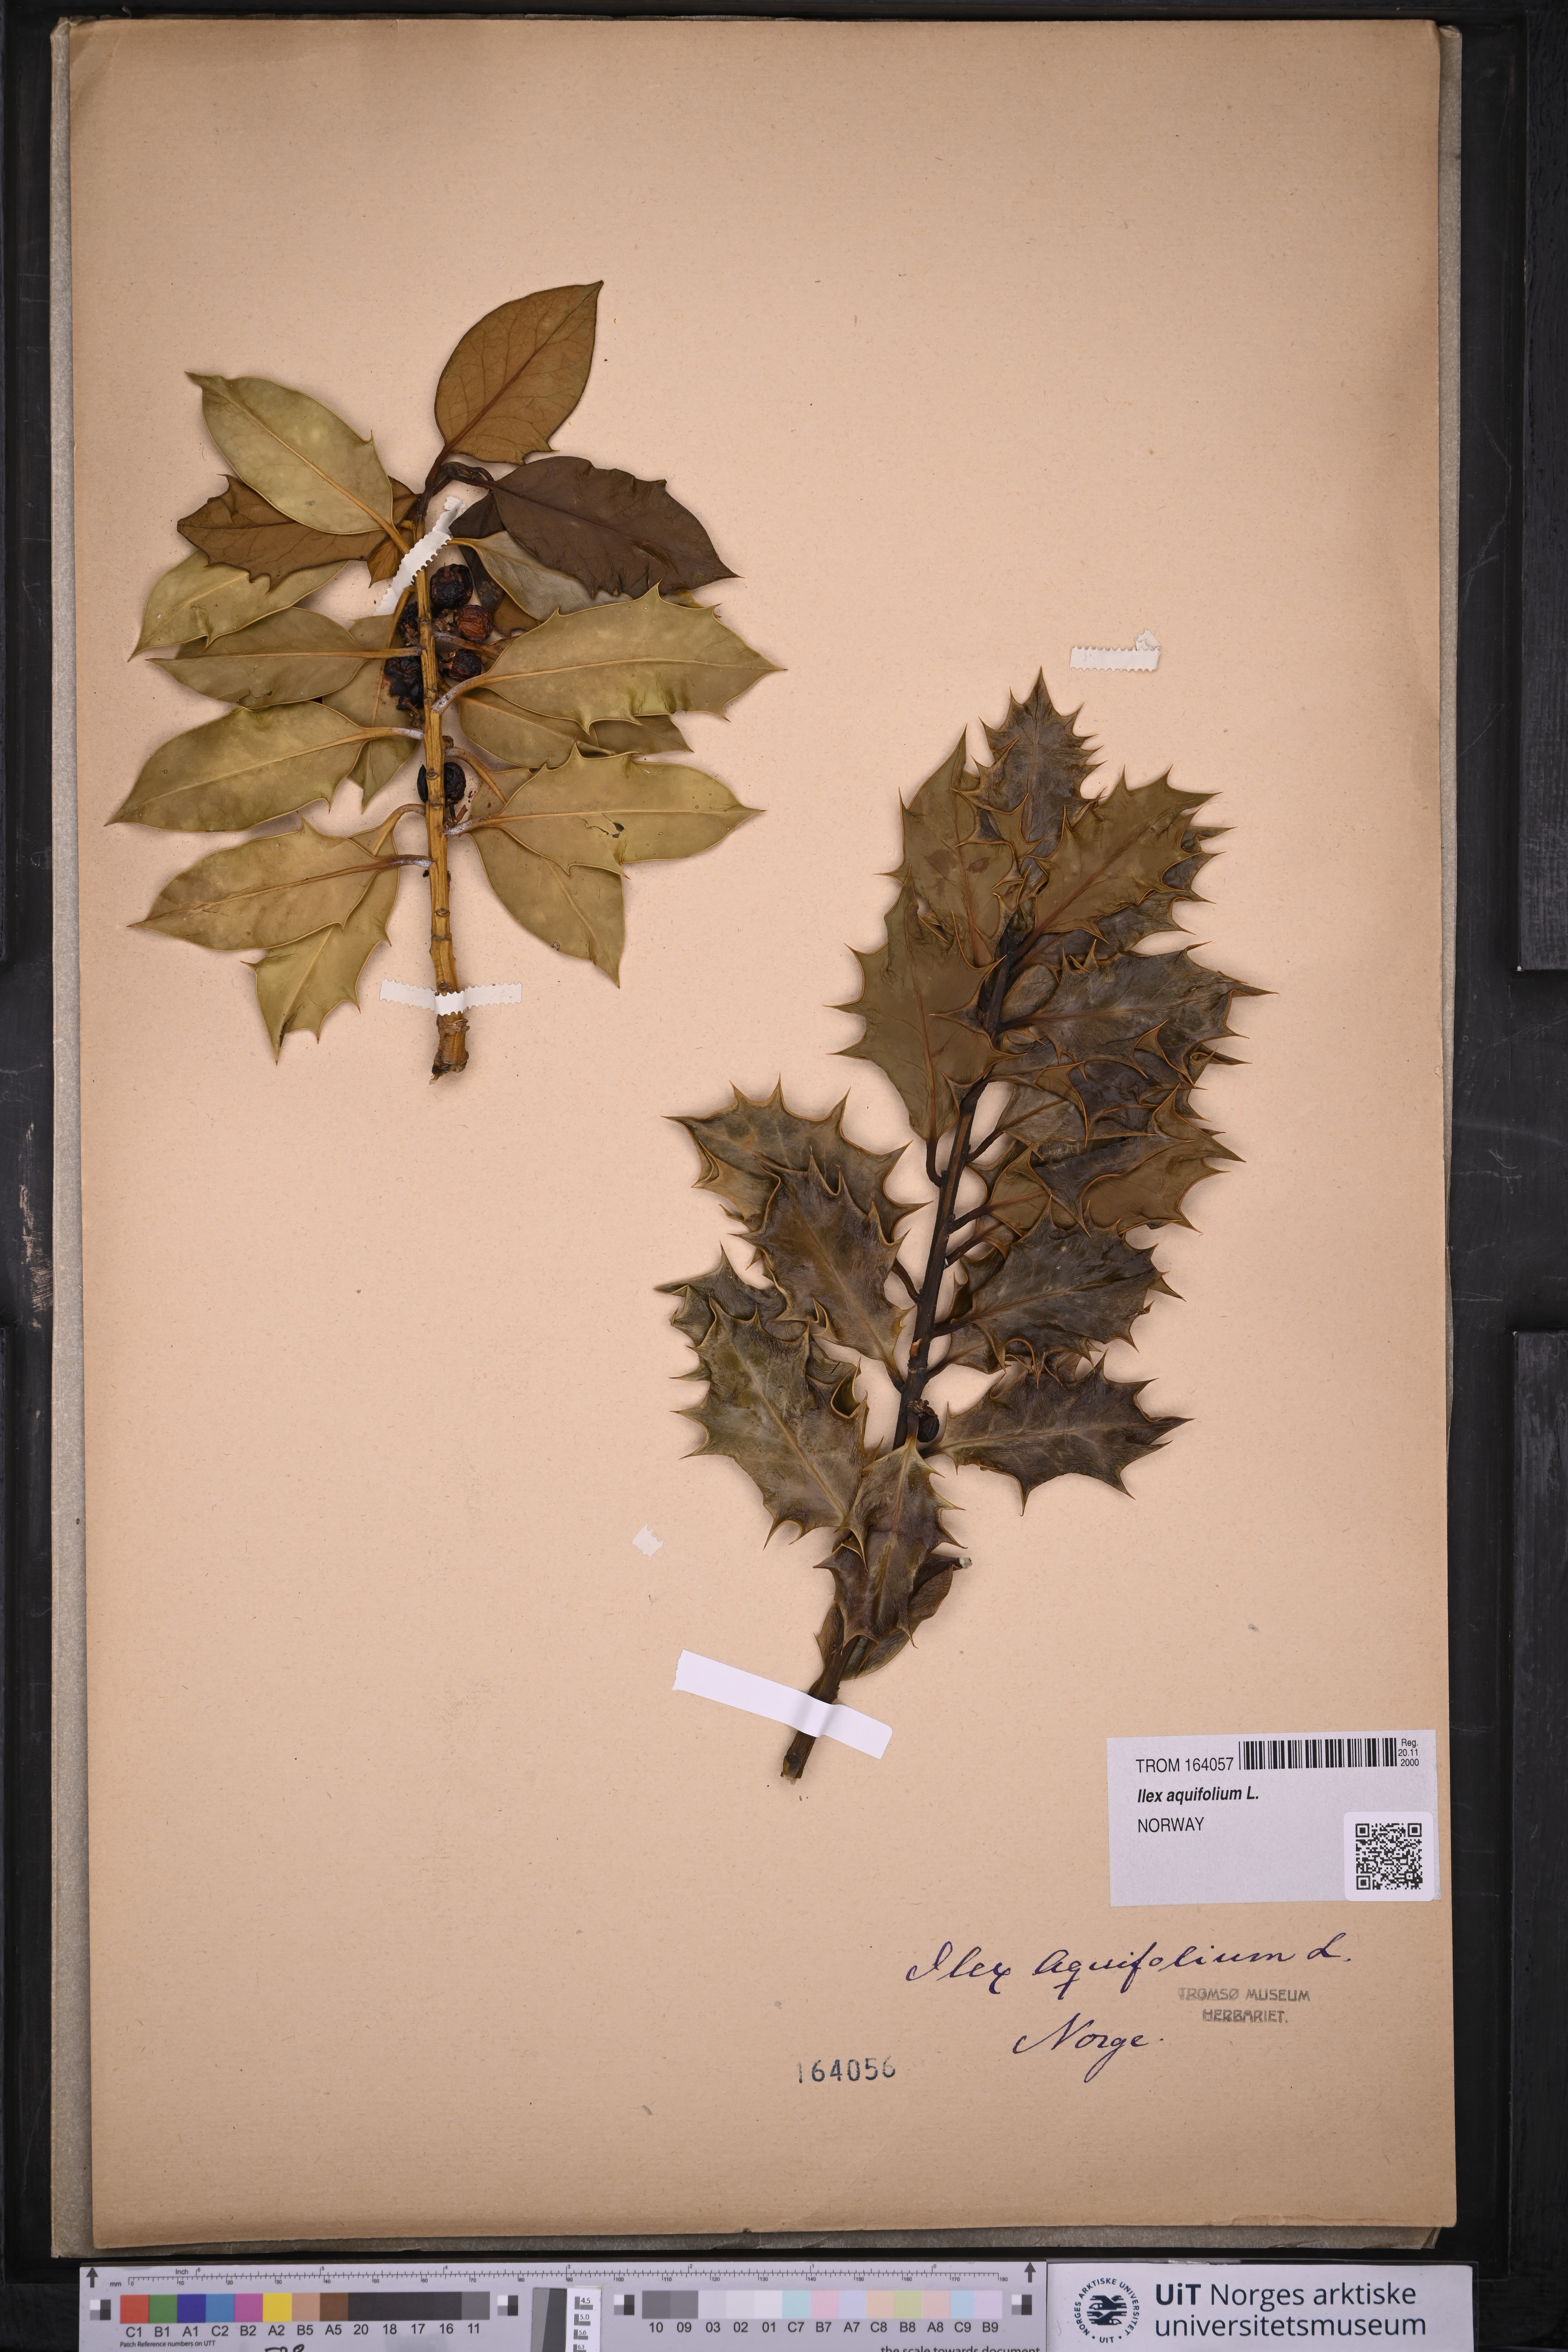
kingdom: Plantae
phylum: Tracheophyta
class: Magnoliopsida
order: Aquifoliales
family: Aquifoliaceae
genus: Ilex
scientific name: Ilex aquifolium
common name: English holly
